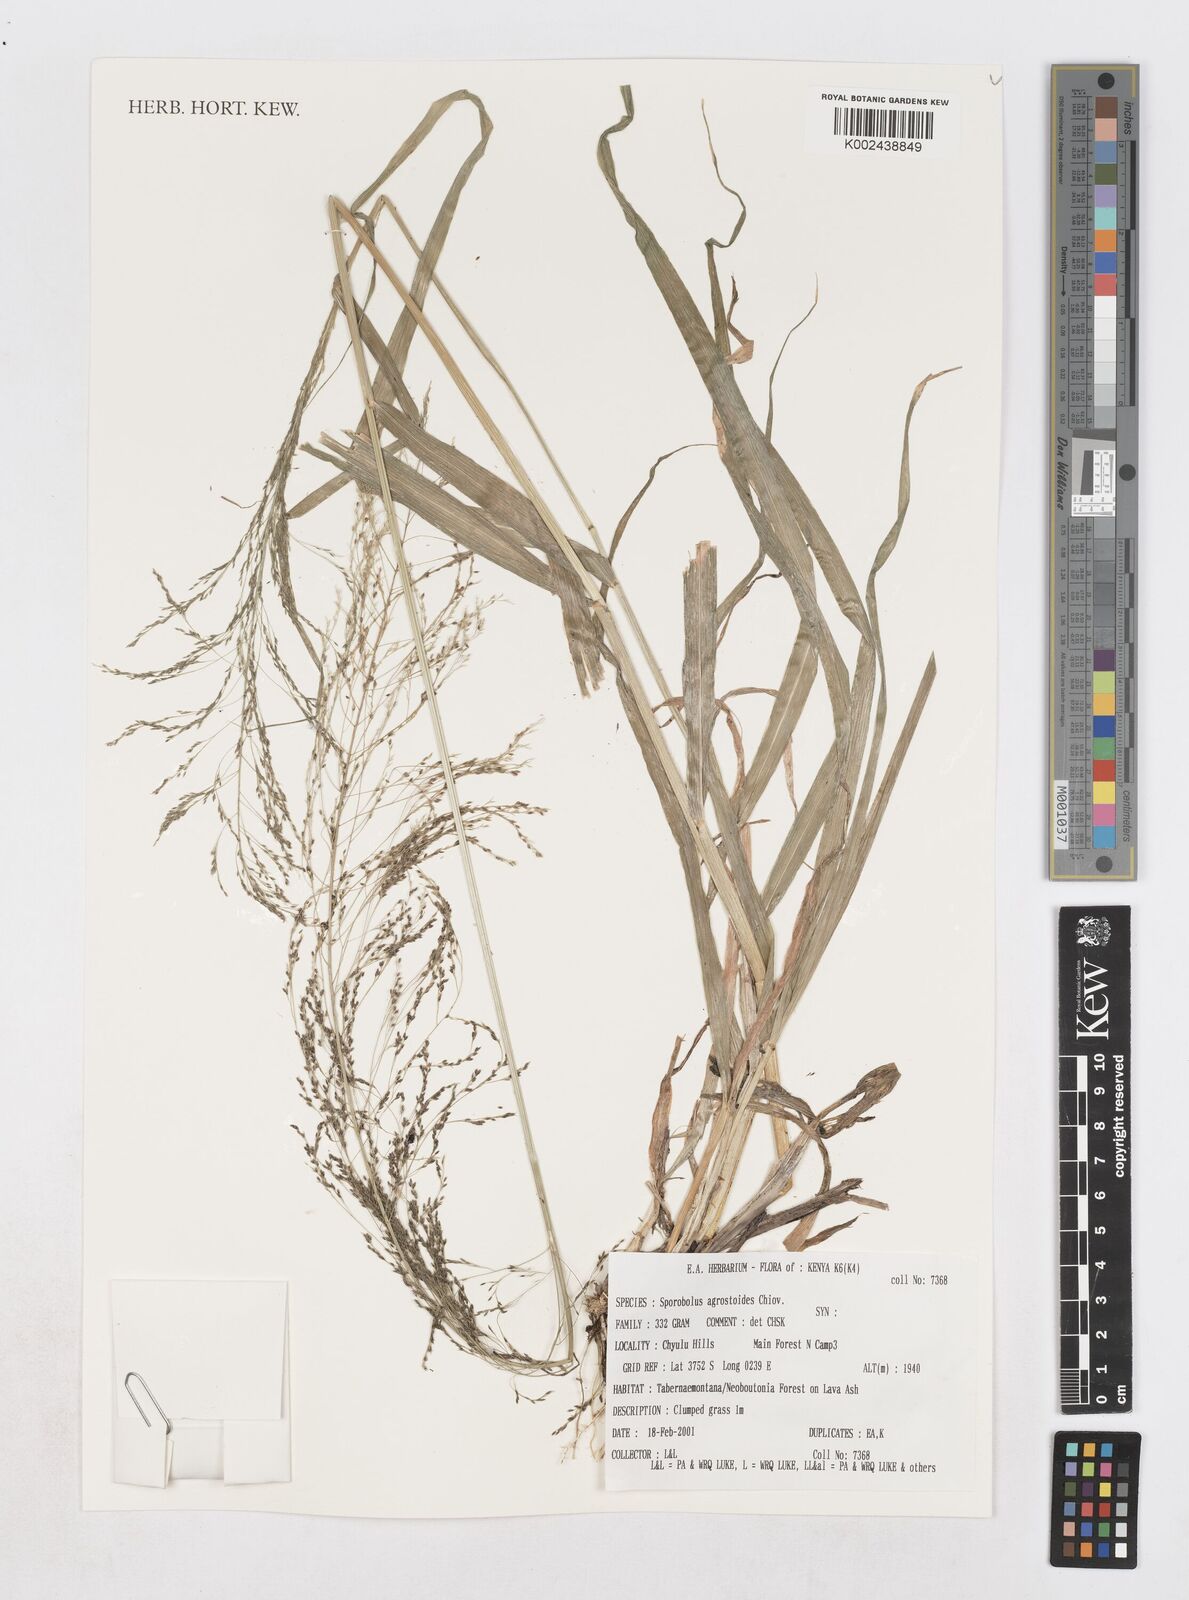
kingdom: Plantae
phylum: Tracheophyta
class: Liliopsida
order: Poales
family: Poaceae
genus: Sporobolus
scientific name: Sporobolus agrostoides
